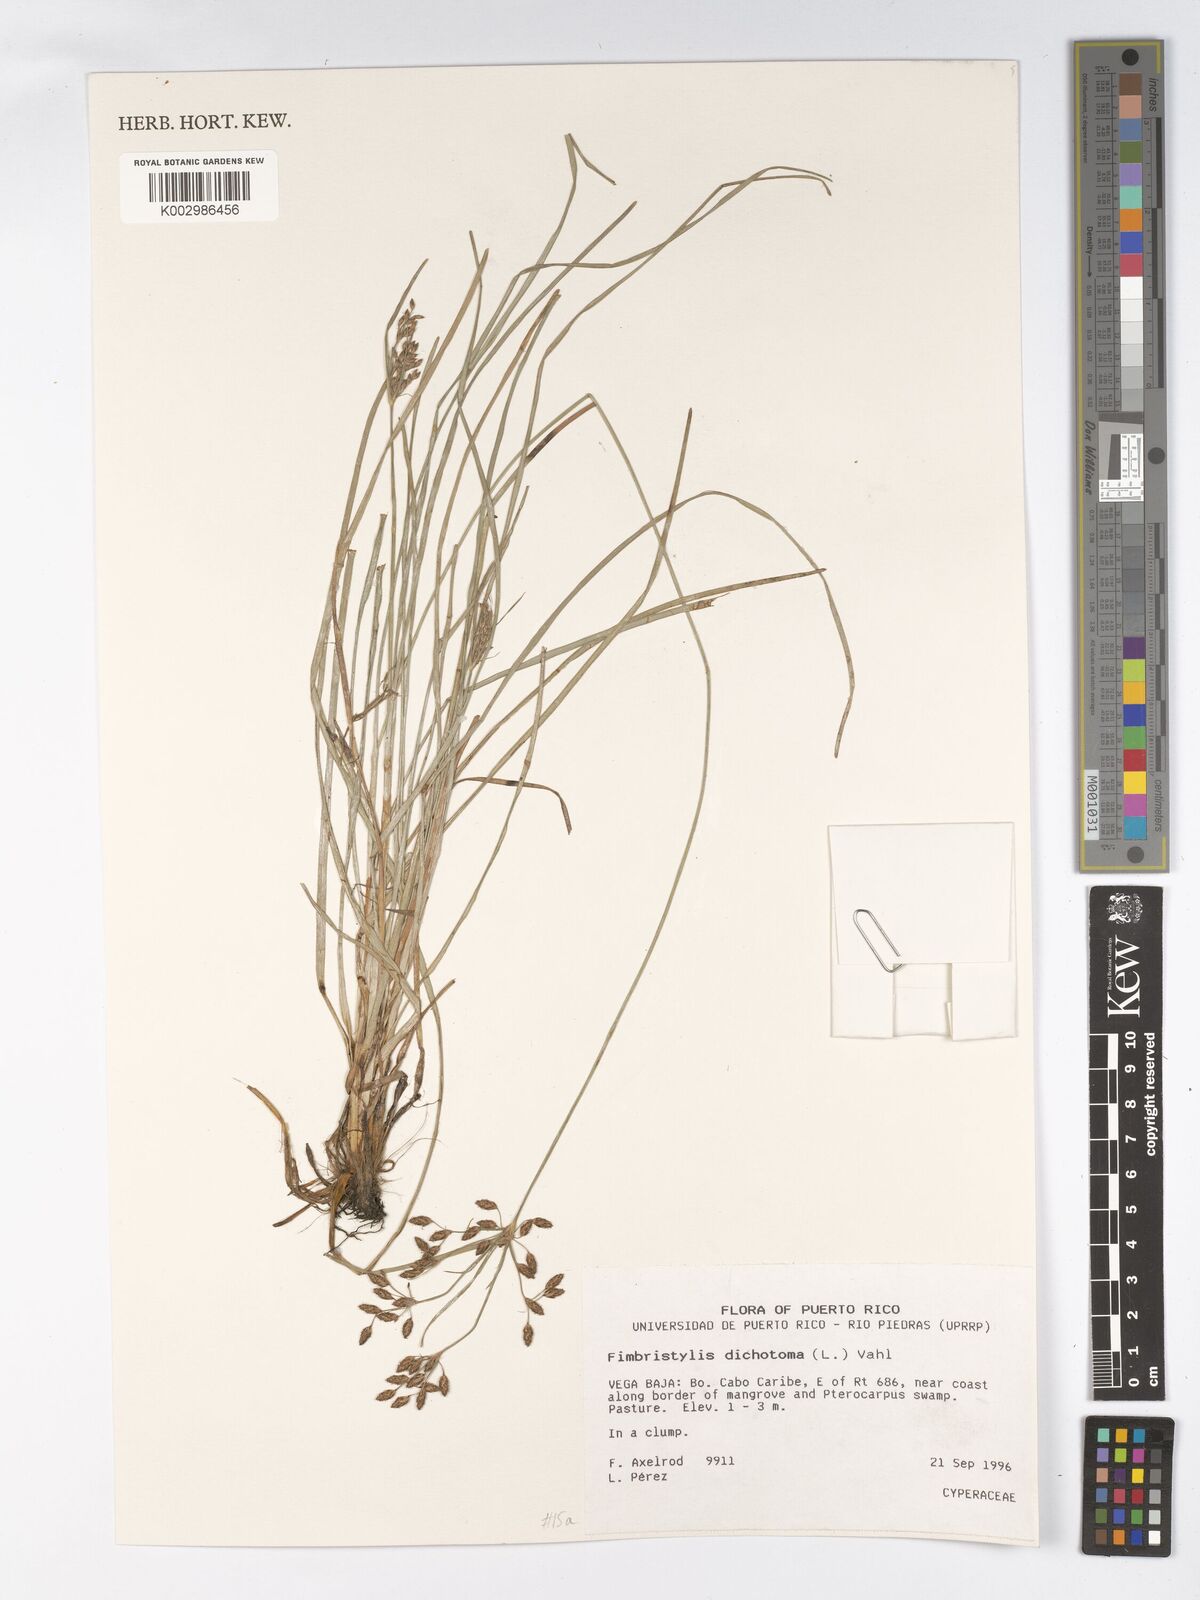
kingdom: Plantae
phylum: Tracheophyta
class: Liliopsida
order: Poales
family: Cyperaceae
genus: Fimbristylis
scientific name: Fimbristylis dichotoma
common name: Forked fimbry
